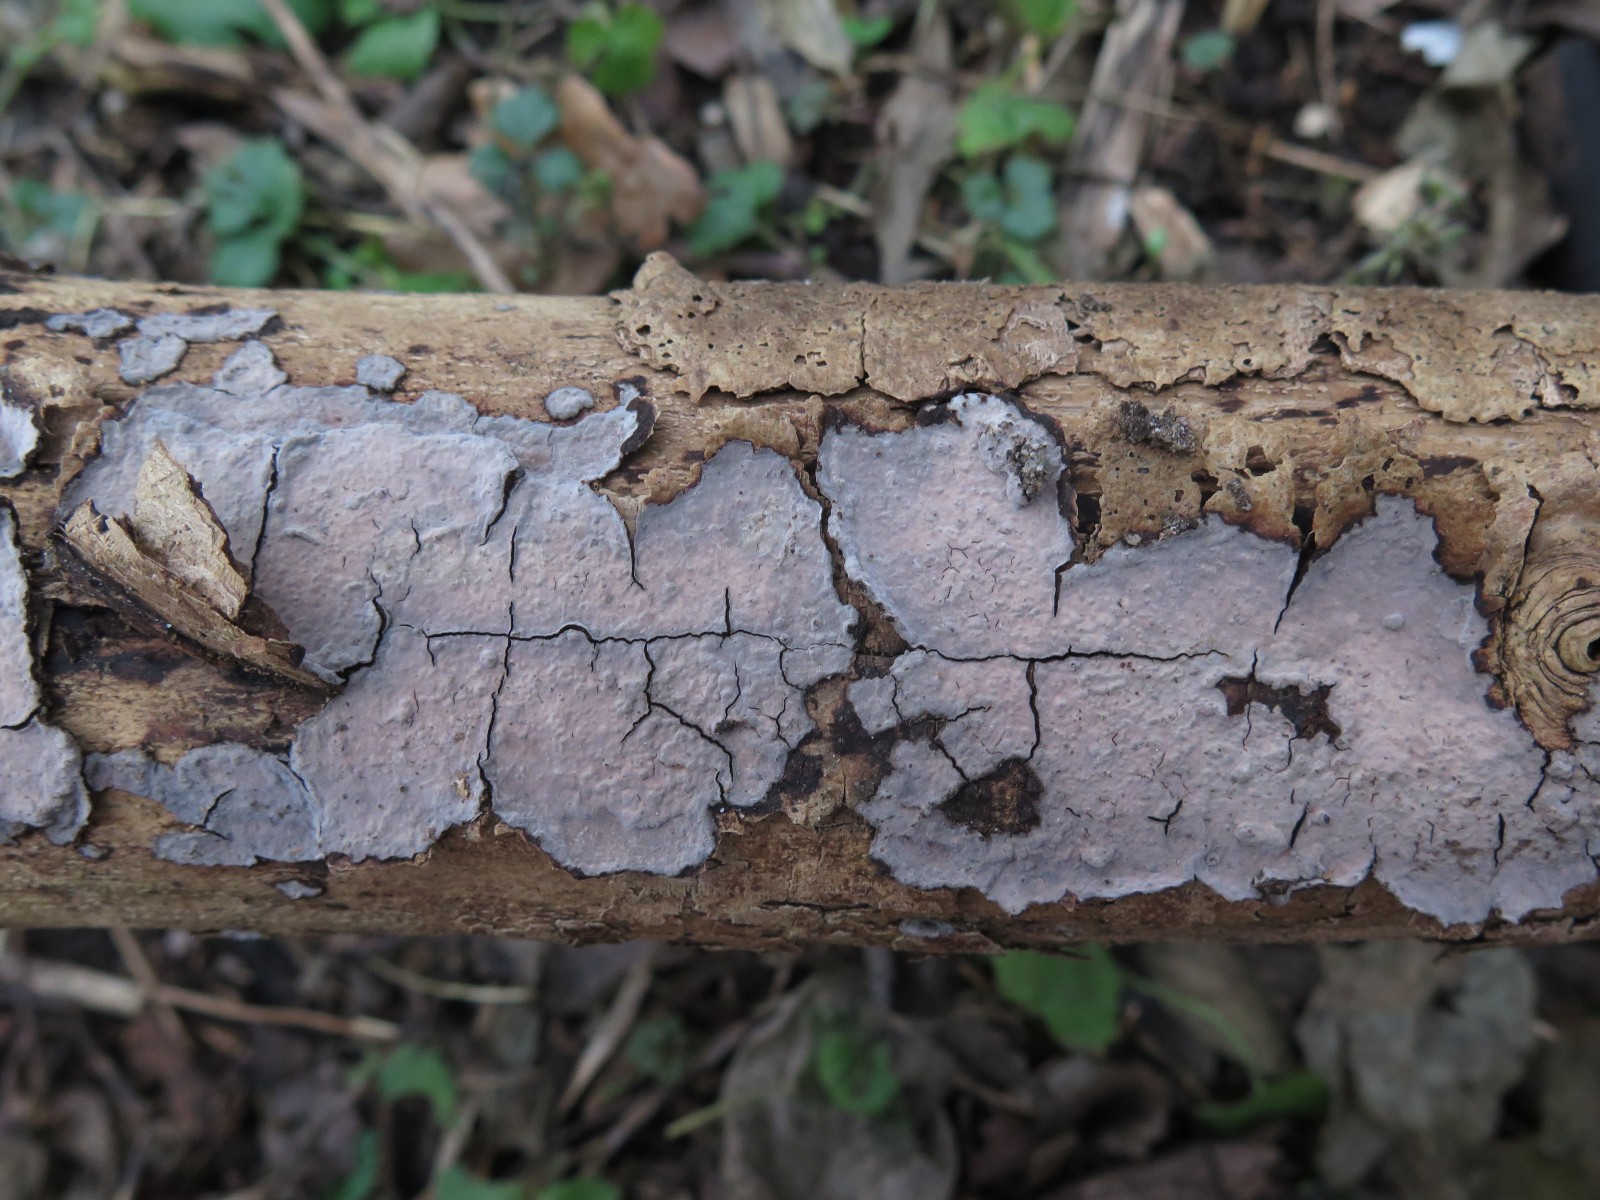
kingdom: Fungi
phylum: Basidiomycota
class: Agaricomycetes
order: Russulales
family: Peniophoraceae
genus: Peniophora
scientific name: Peniophora limitata
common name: mørkrandet voksskind
